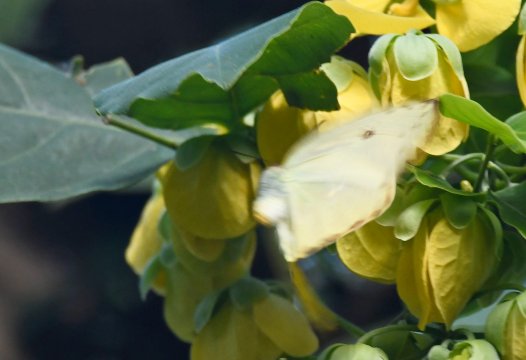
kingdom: Animalia
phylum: Arthropoda
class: Insecta
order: Lepidoptera
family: Pieridae
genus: Phoebis
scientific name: Phoebis sennae
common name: Cloudless Sulphur
